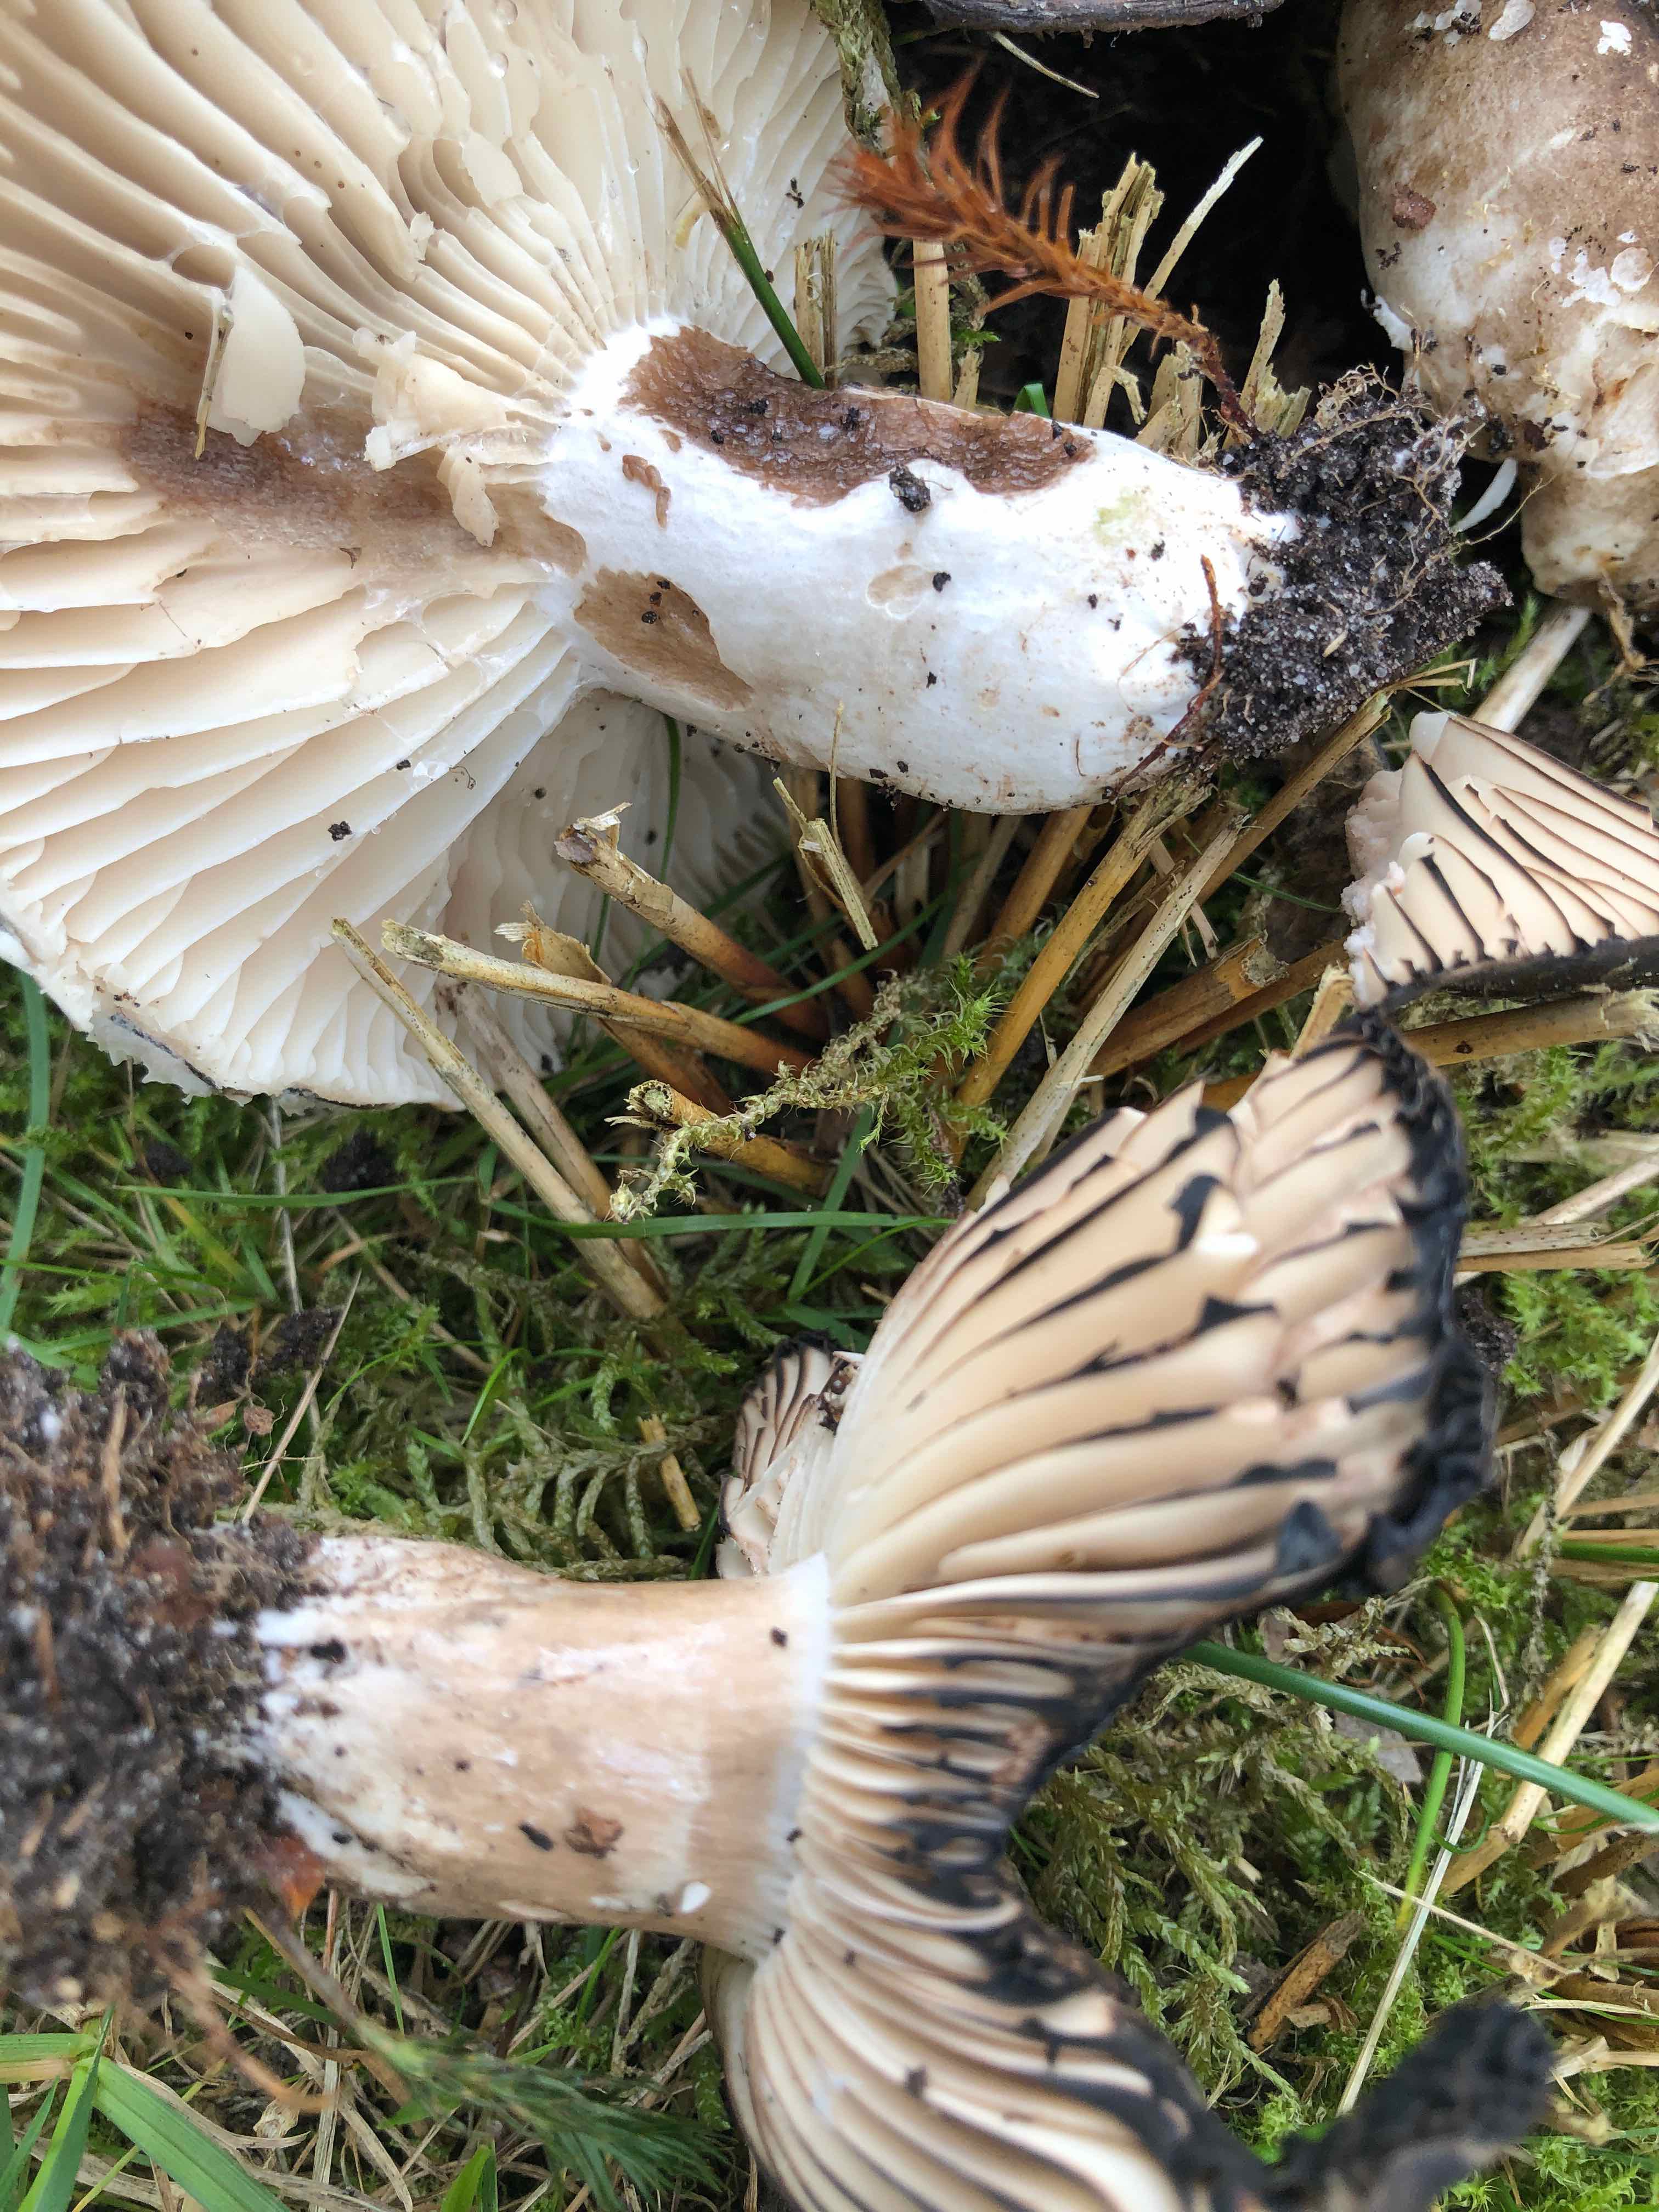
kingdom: Fungi
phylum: Basidiomycota
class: Agaricomycetes
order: Russulales
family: Russulaceae
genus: Russula
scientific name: Russula adusta
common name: sværtende skørhat
